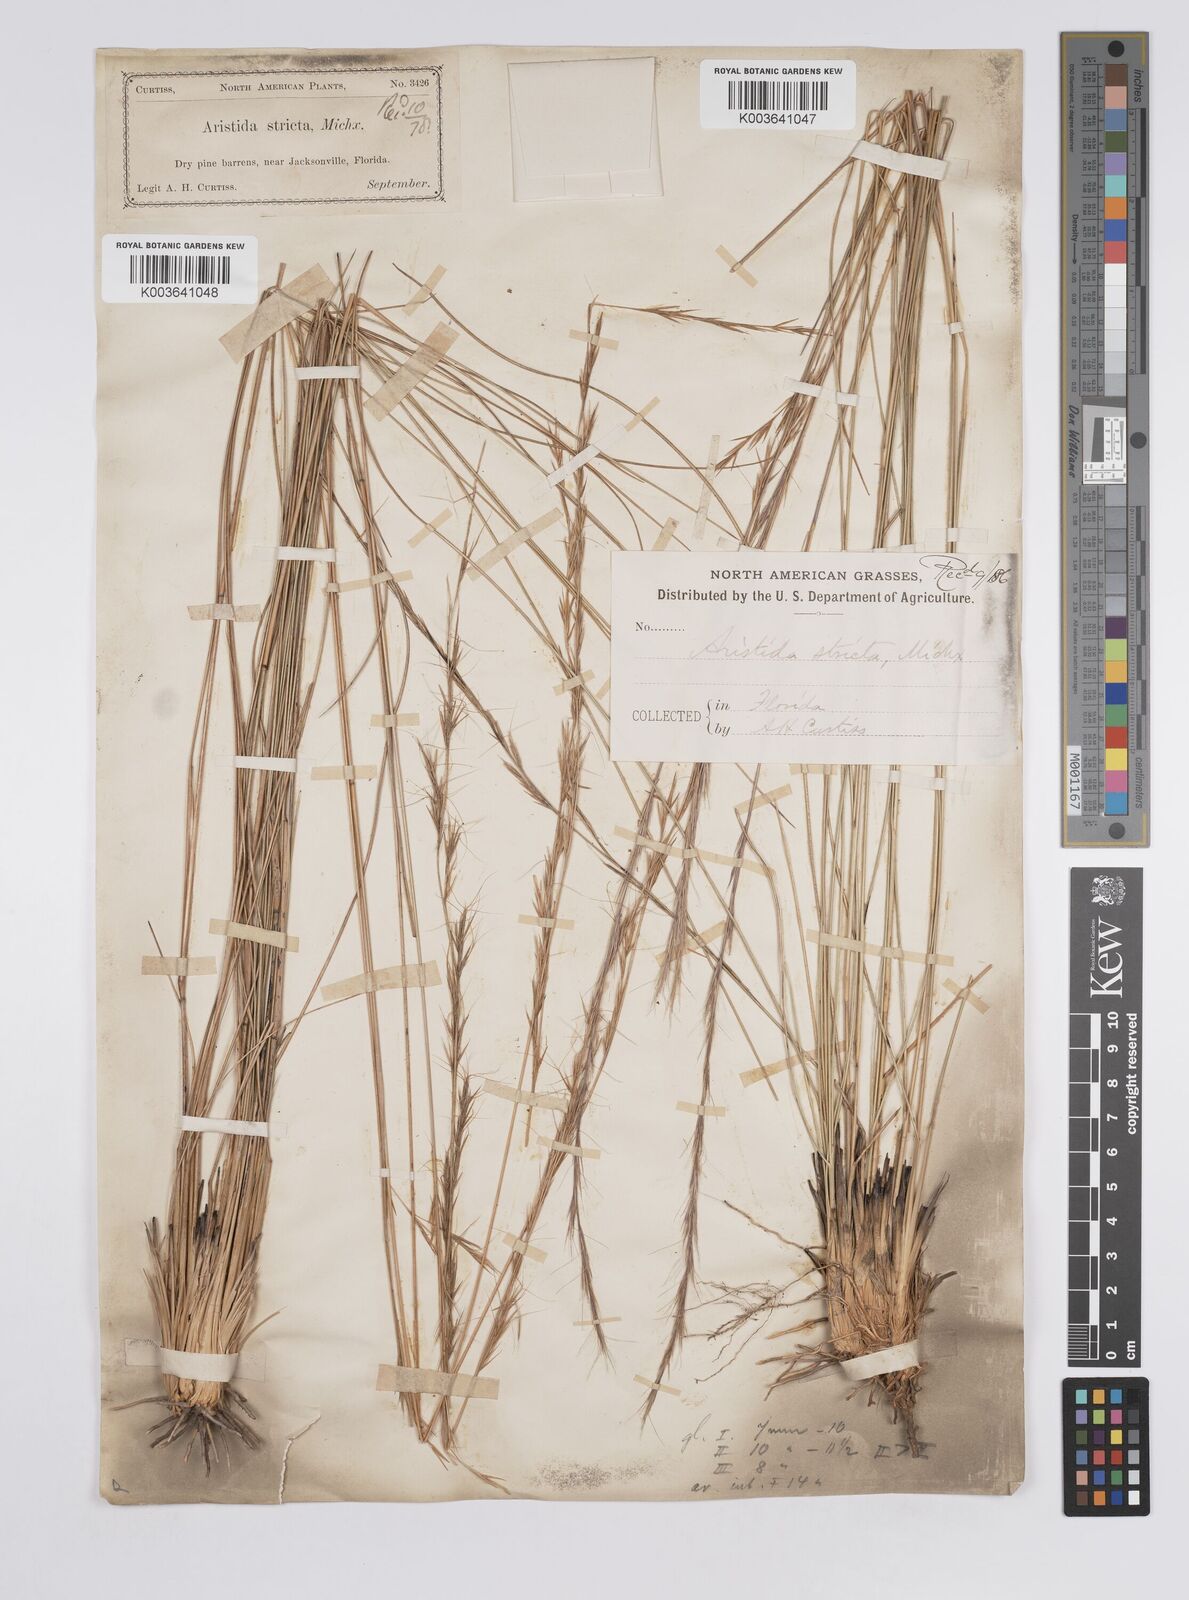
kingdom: Plantae
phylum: Tracheophyta
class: Liliopsida
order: Poales
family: Poaceae
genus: Aristida
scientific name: Aristida stricta
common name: Pineland three-awn
